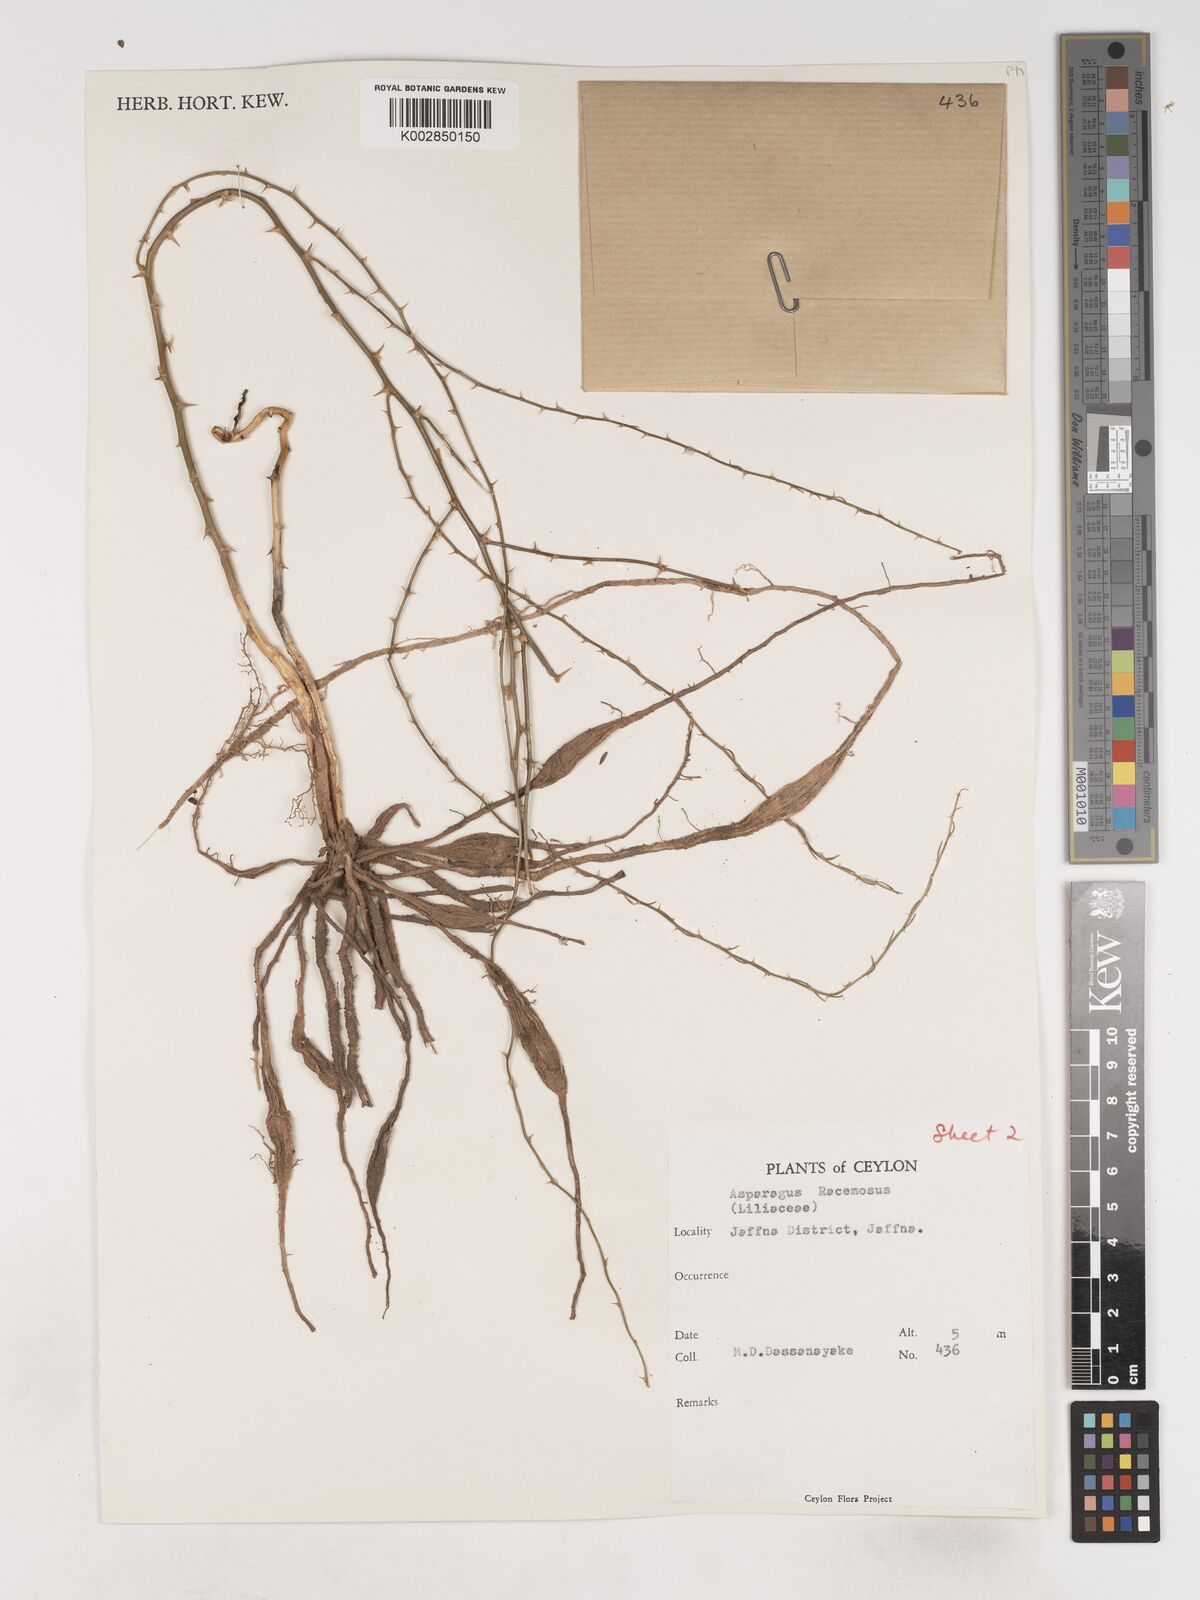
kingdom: Plantae
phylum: Tracheophyta
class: Liliopsida
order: Asparagales
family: Asparagaceae
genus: Asparagus
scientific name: Asparagus racemosus
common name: Asparagus-fern
